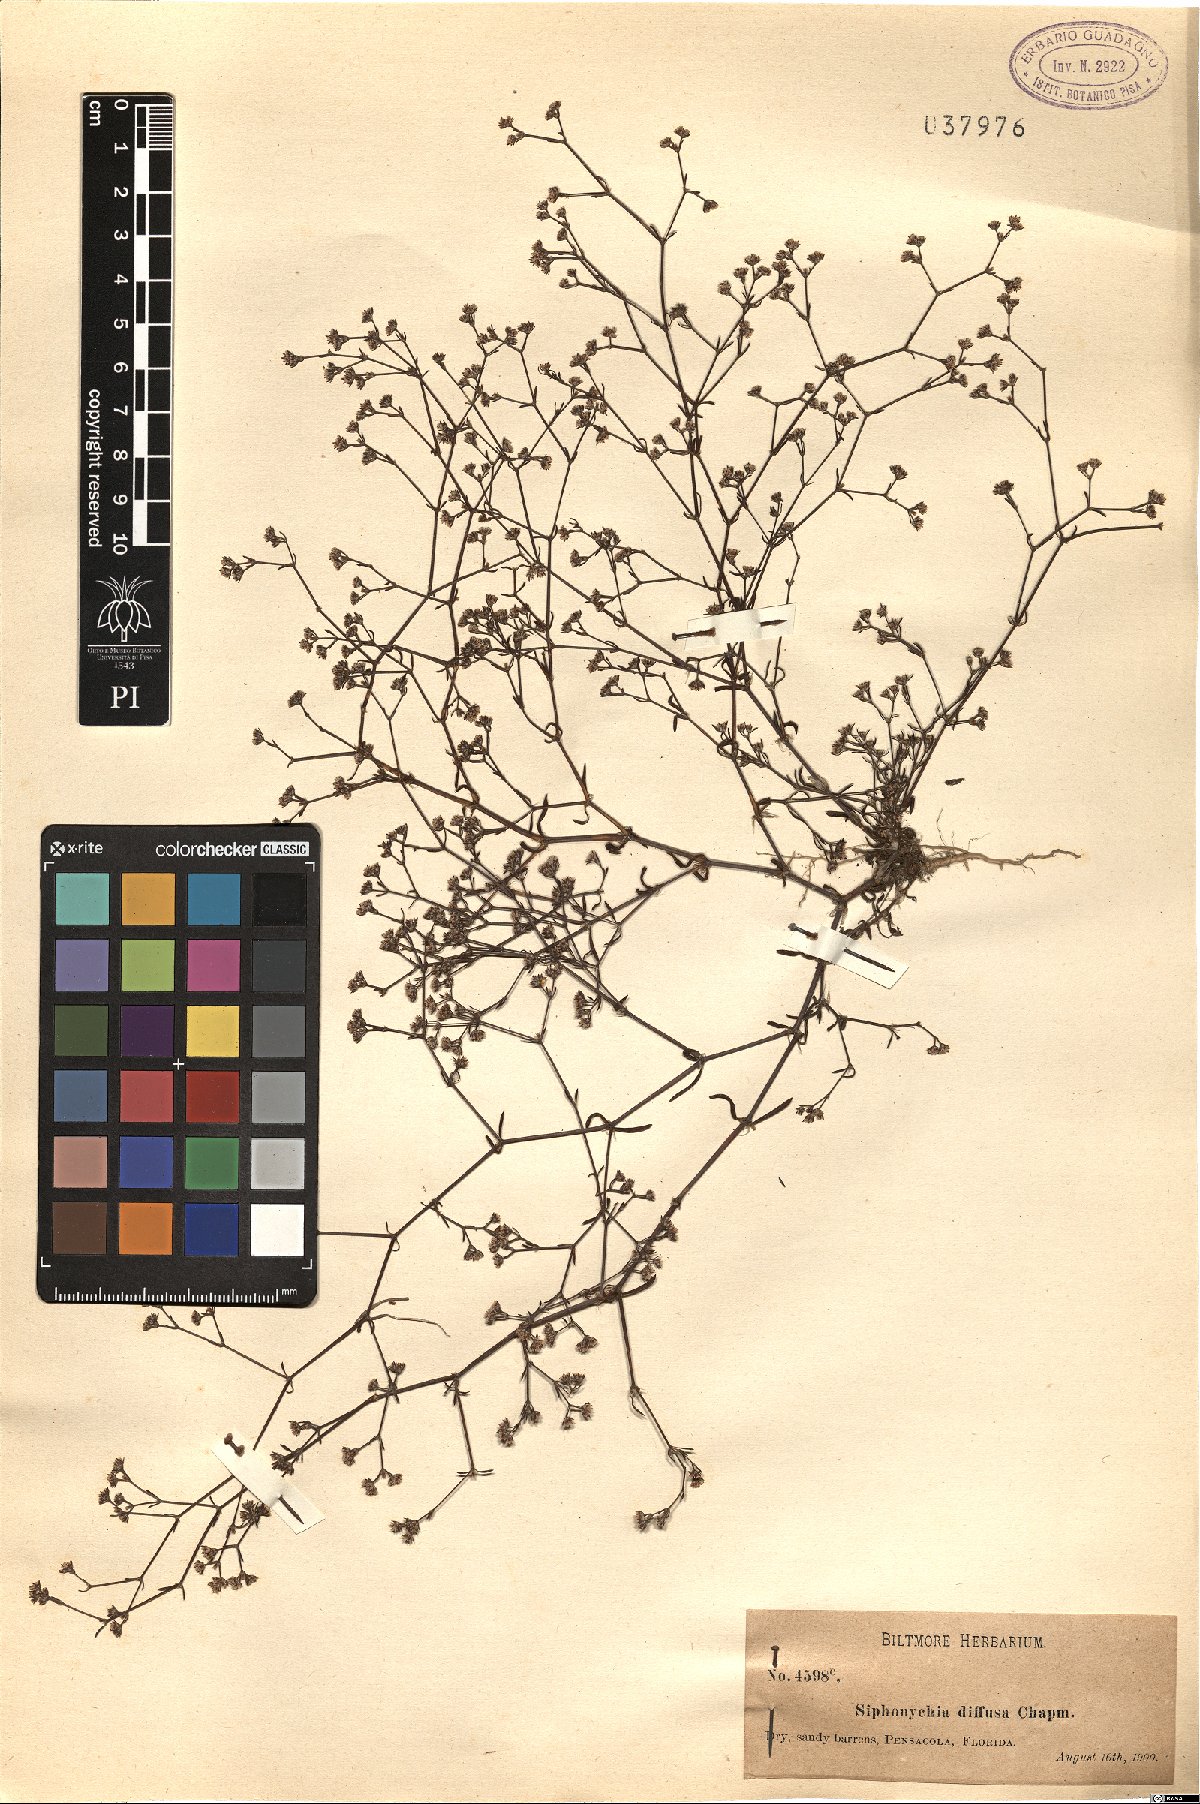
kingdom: Plantae
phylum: Tracheophyta
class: Magnoliopsida
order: Caryophyllales
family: Caryophyllaceae
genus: Paronychia
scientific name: Paronychia patula
